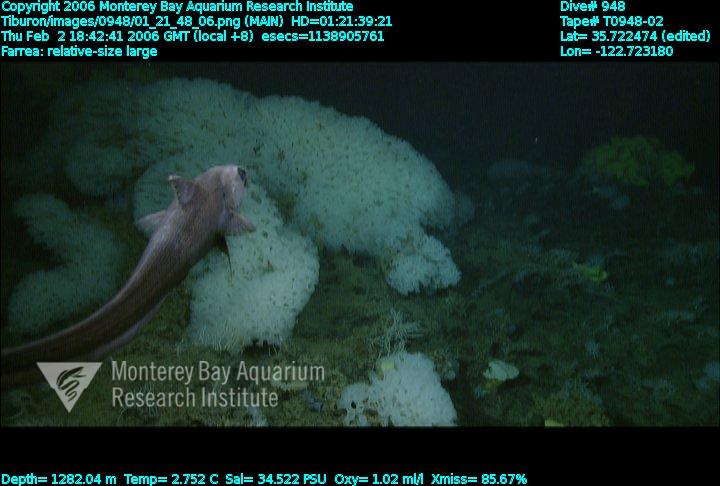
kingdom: Animalia
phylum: Porifera
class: Hexactinellida
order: Sceptrulophora
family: Farreidae
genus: Farrea
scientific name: Farrea
